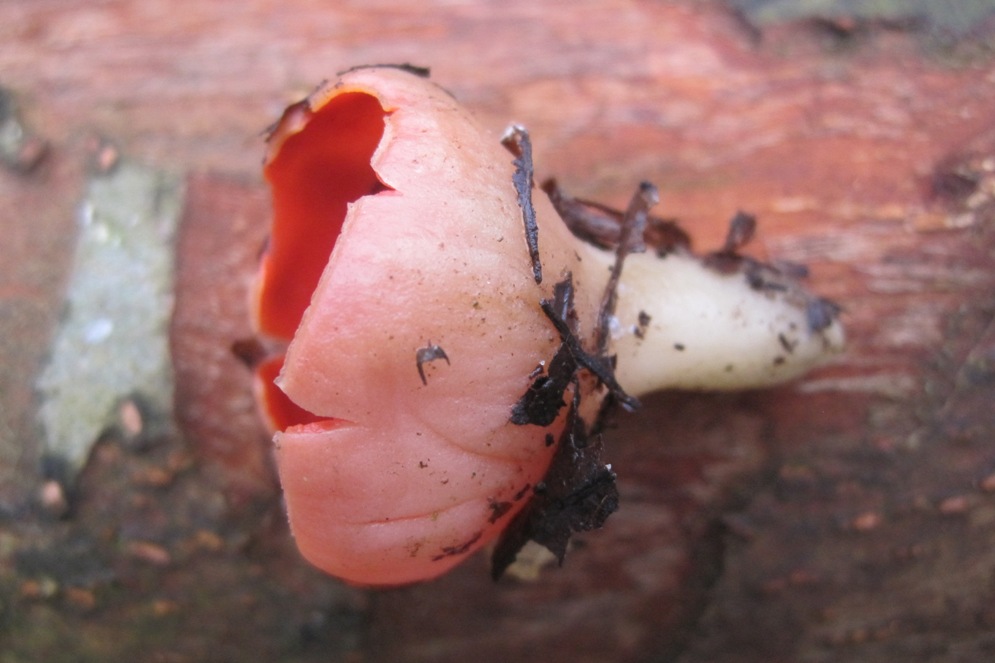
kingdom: Fungi
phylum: Ascomycota
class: Pezizomycetes
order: Pezizales
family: Sarcoscyphaceae
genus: Sarcoscypha
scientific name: Sarcoscypha austriaca
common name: krølhåret pragtbæger
